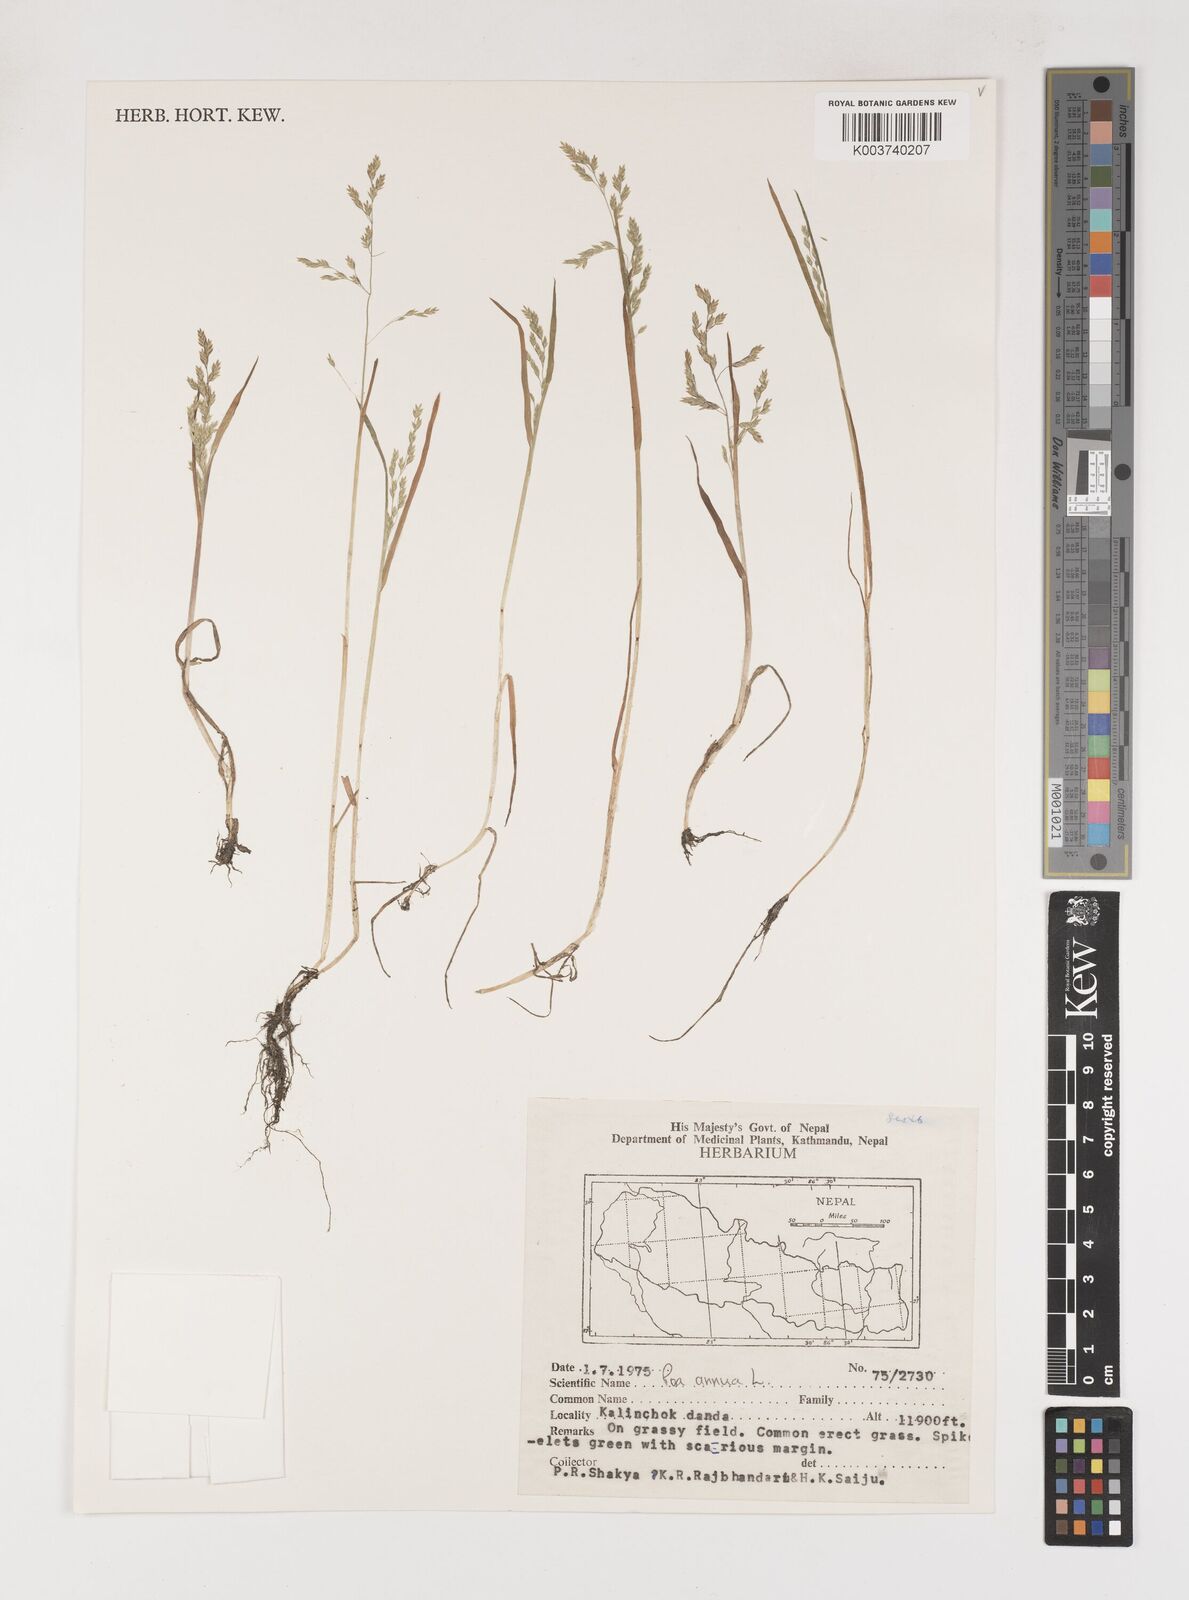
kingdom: Plantae
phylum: Tracheophyta
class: Liliopsida
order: Poales
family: Poaceae
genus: Poa
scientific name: Poa annua
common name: Annual bluegrass
